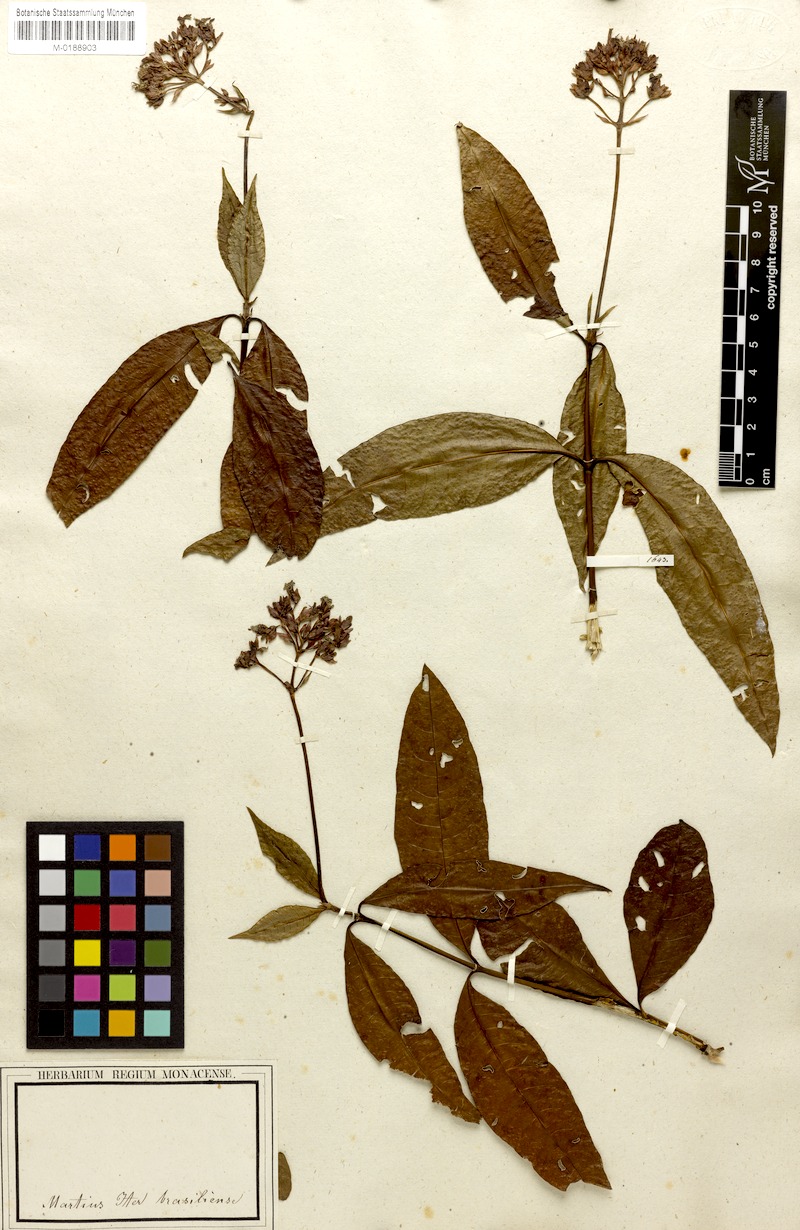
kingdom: Plantae
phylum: Tracheophyta
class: Magnoliopsida
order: Gentianales
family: Rubiaceae
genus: Palicourea
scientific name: Palicourea maguireorum
